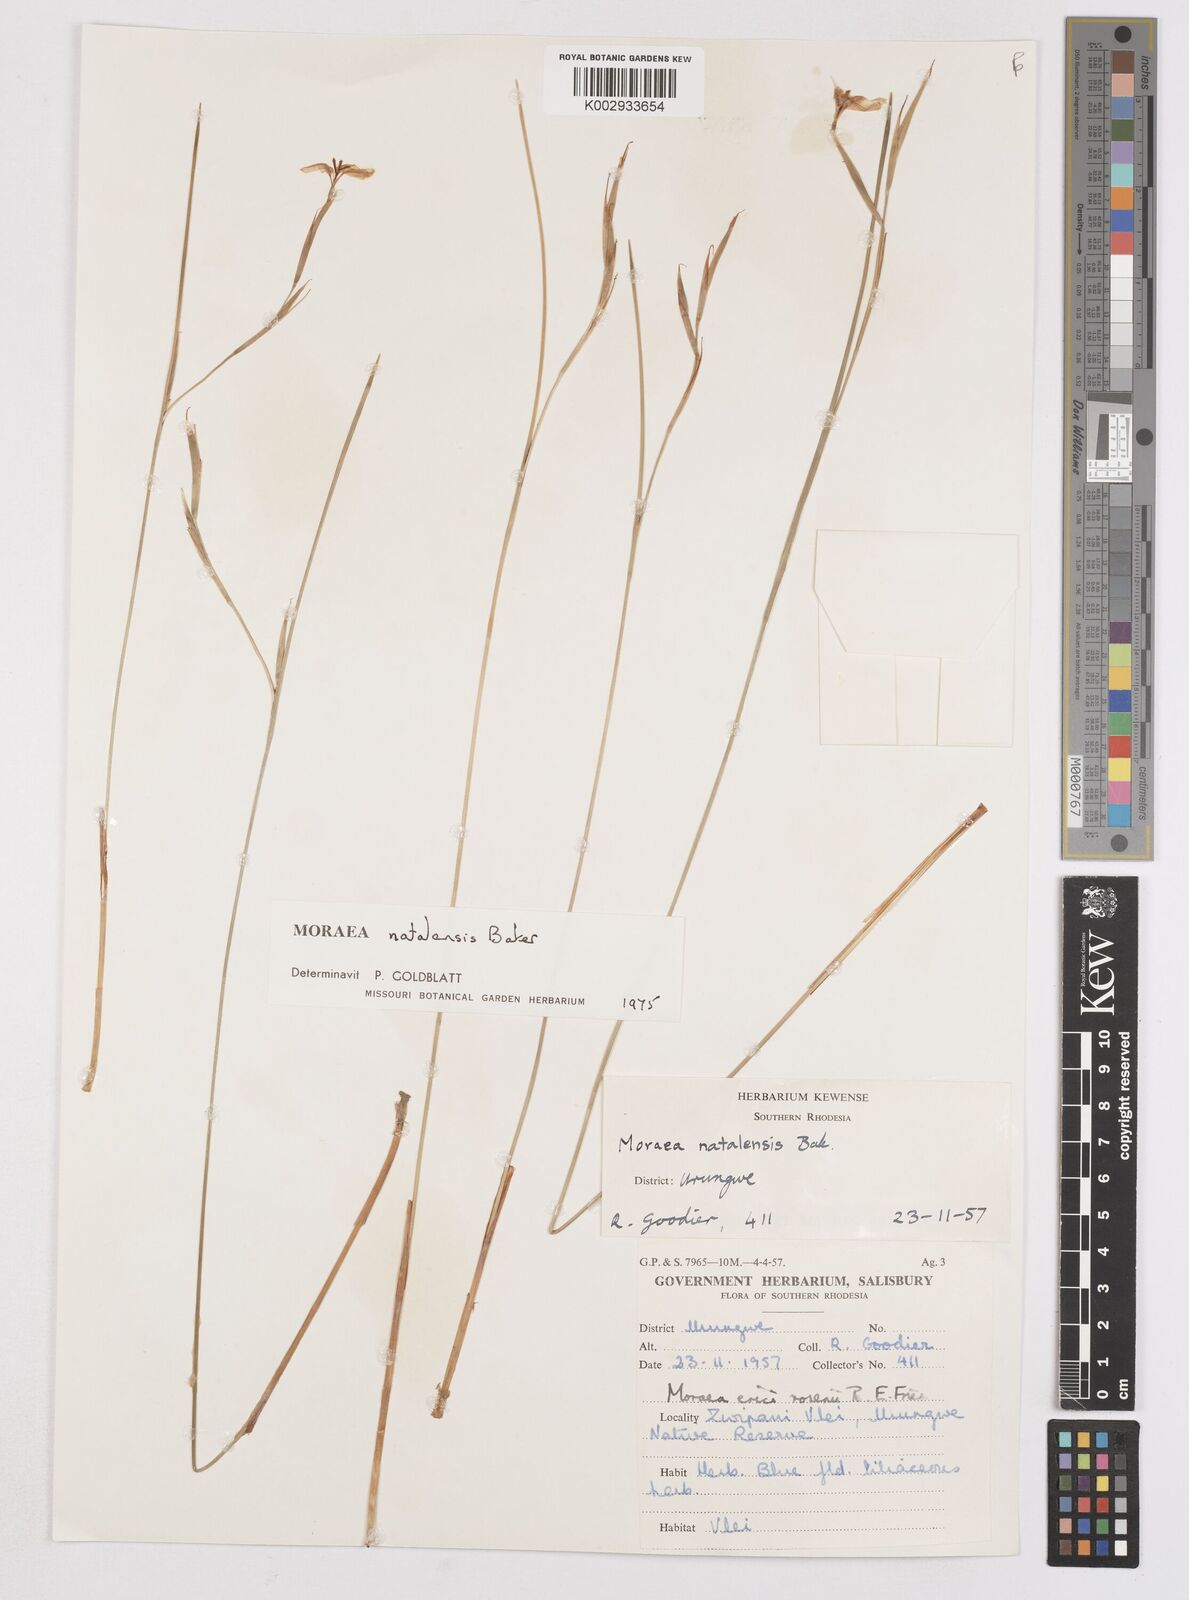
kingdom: Plantae
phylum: Tracheophyta
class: Liliopsida
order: Asparagales
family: Iridaceae
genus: Moraea
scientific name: Moraea natalensis
